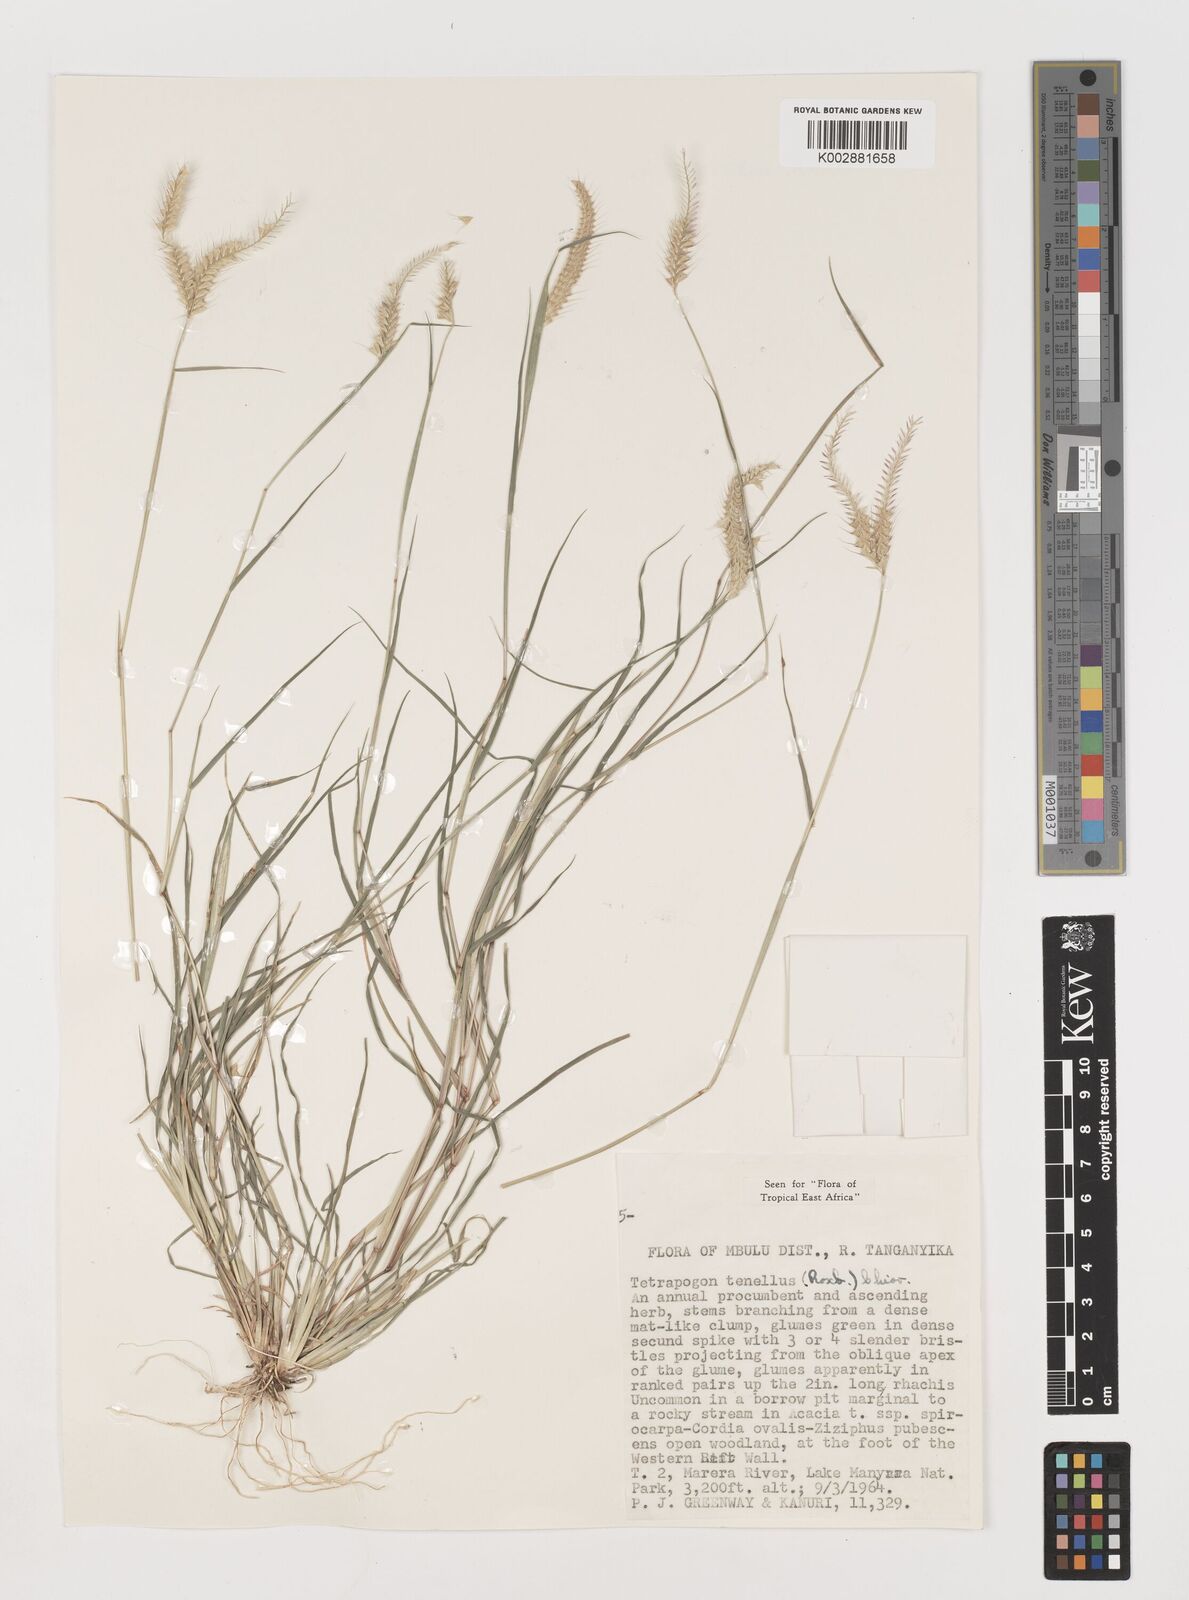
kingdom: Plantae
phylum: Tracheophyta
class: Liliopsida
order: Poales
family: Poaceae
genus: Tetrapogon
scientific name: Tetrapogon tenellus
